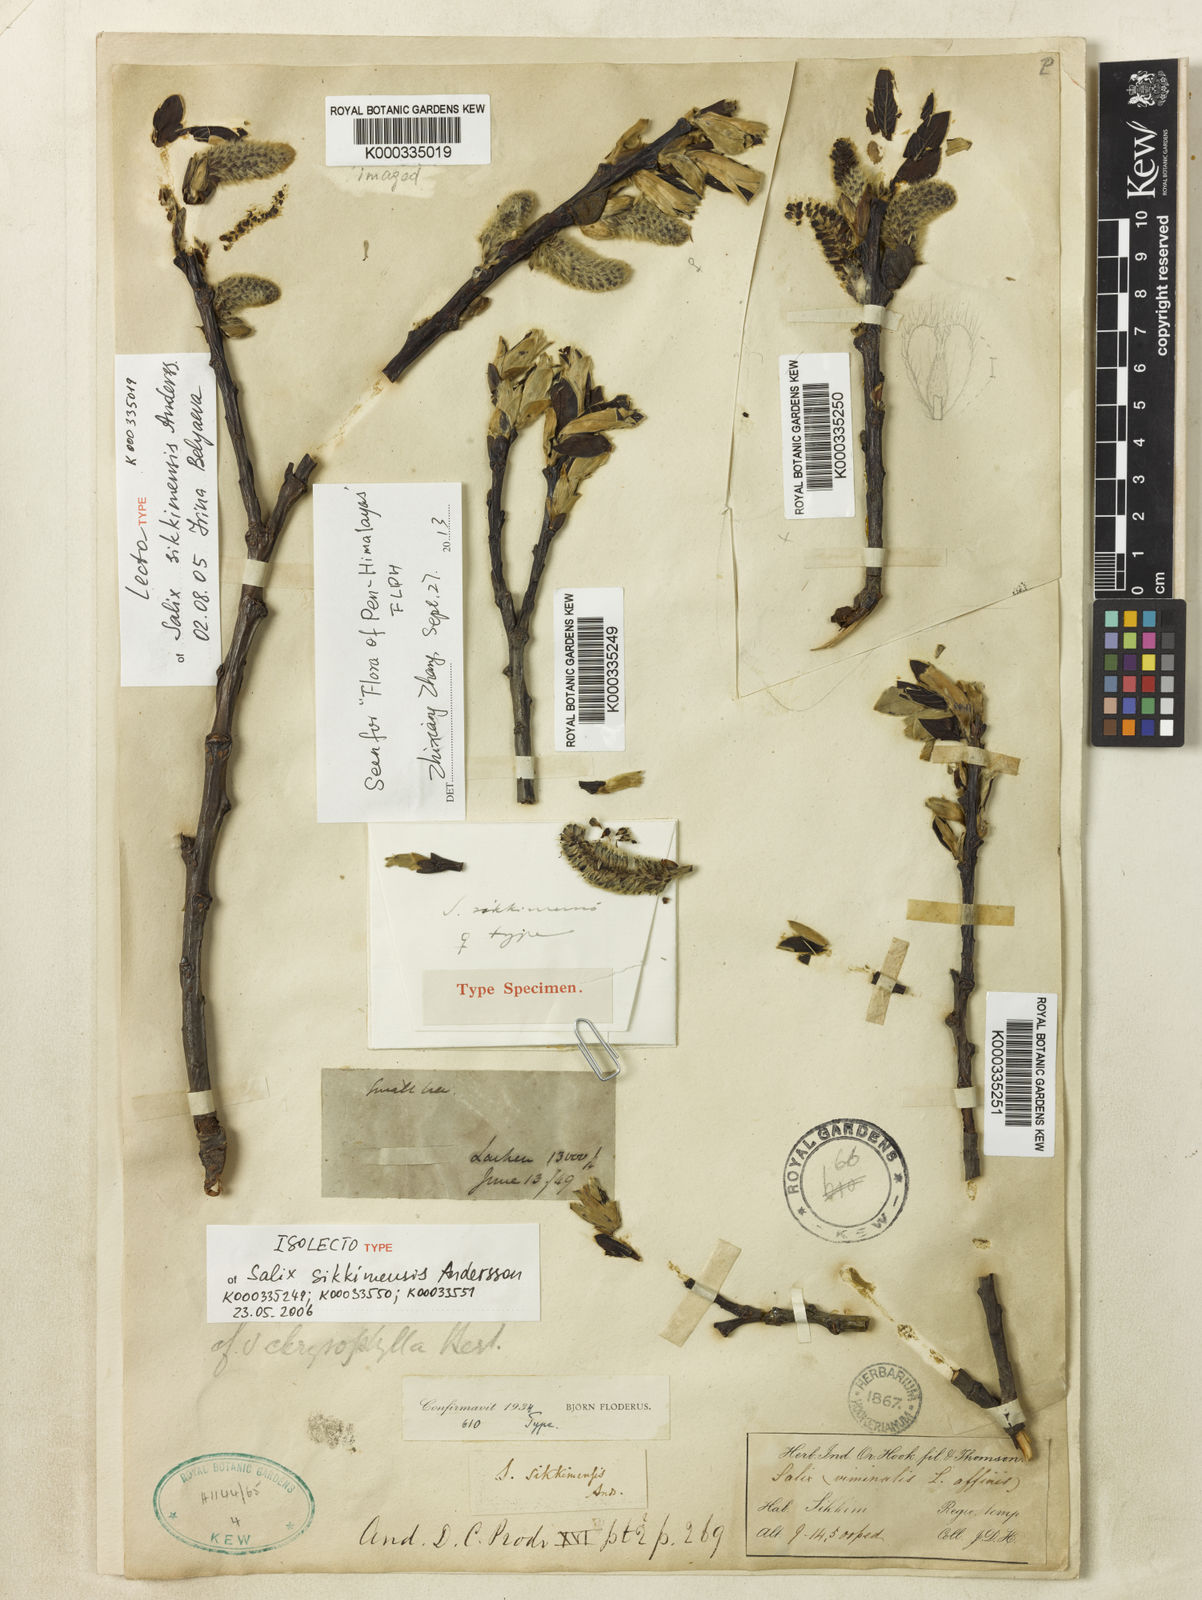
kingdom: Plantae
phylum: Tracheophyta
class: Magnoliopsida
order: Malpighiales
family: Salicaceae
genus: Salix
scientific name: Salix sikkimensis
